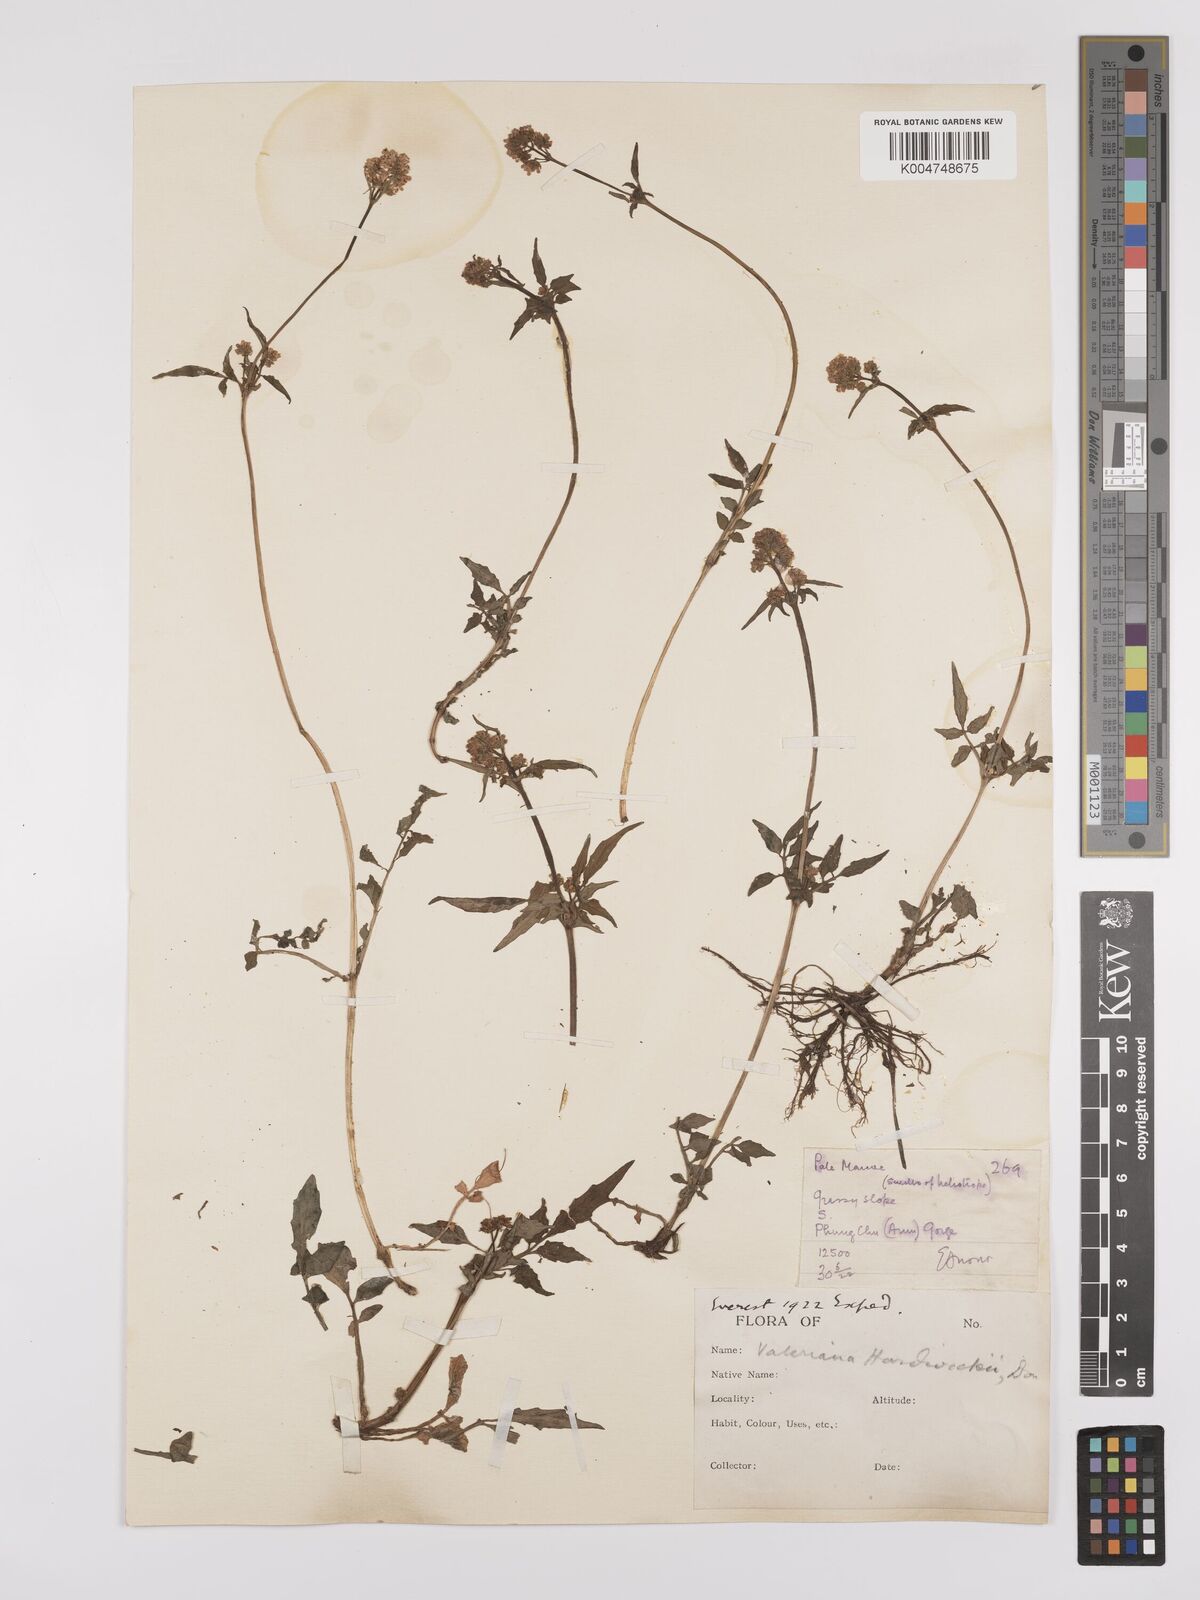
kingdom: Plantae
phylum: Tracheophyta
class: Magnoliopsida
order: Dipsacales
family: Caprifoliaceae
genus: Valeriana
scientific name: Valeriana hardwickei
